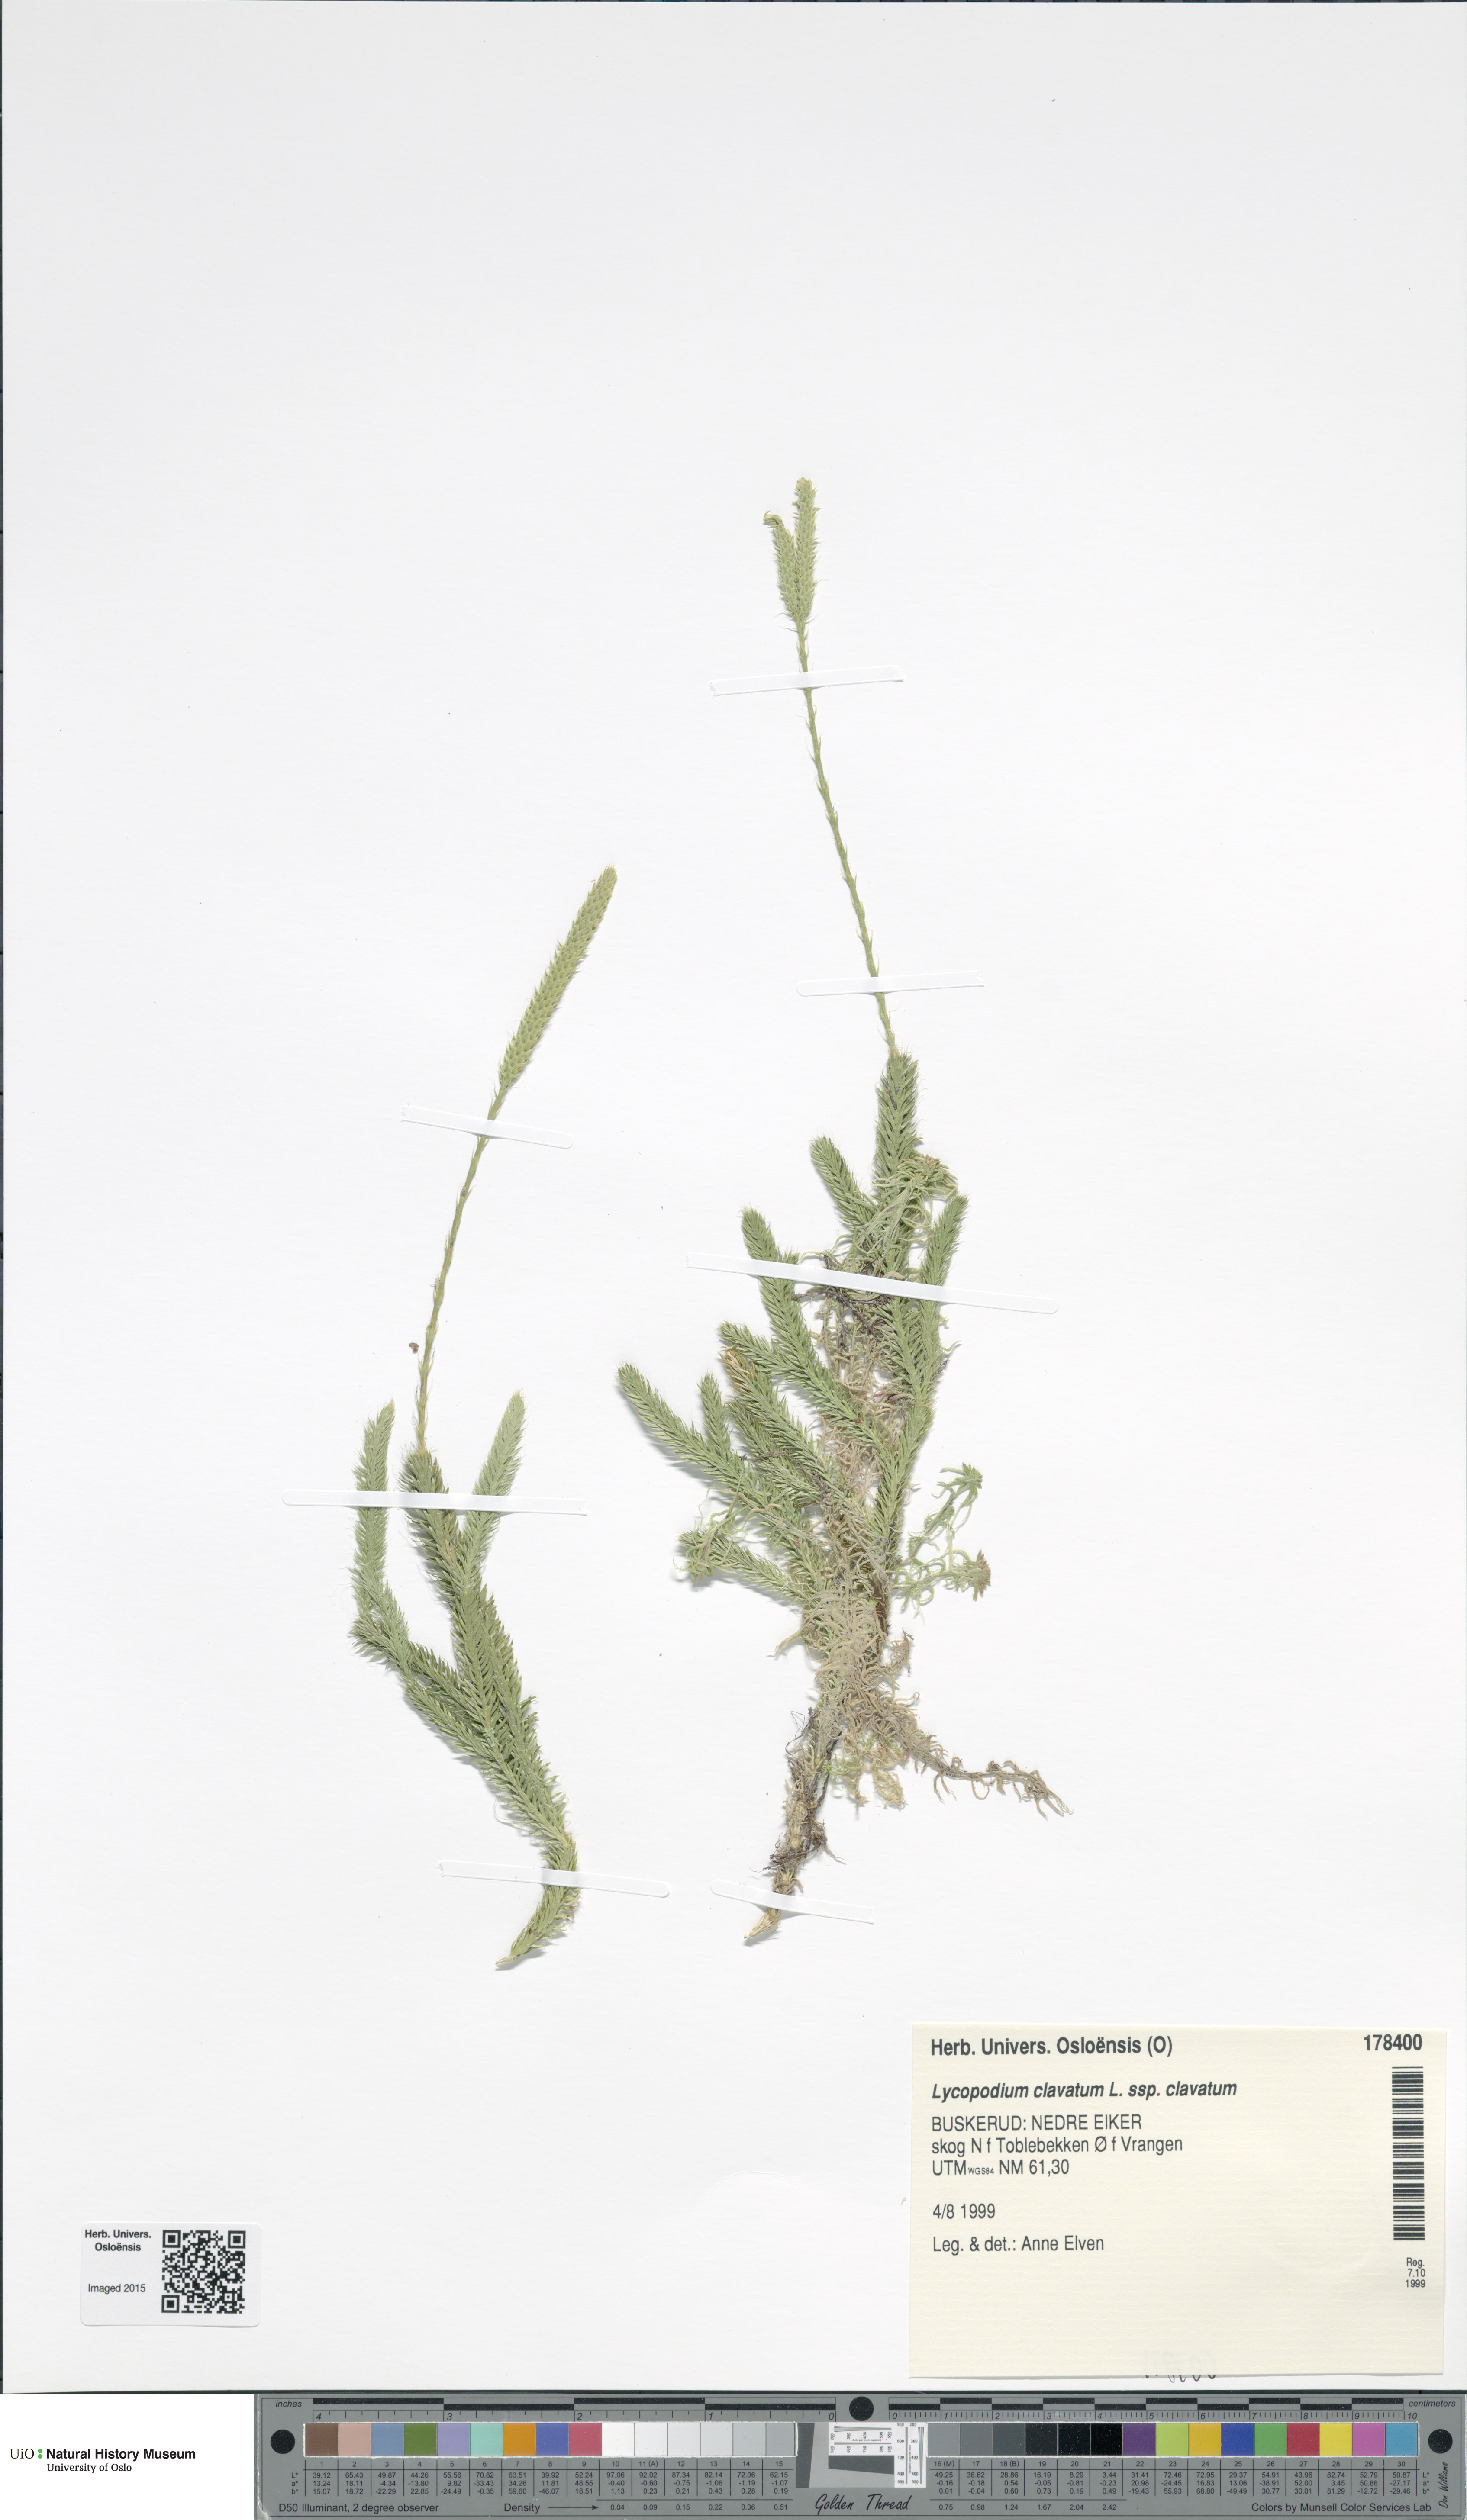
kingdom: Plantae
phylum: Tracheophyta
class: Lycopodiopsida
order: Lycopodiales
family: Lycopodiaceae
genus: Lycopodium
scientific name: Lycopodium clavatum
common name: Stag's-horn clubmoss
